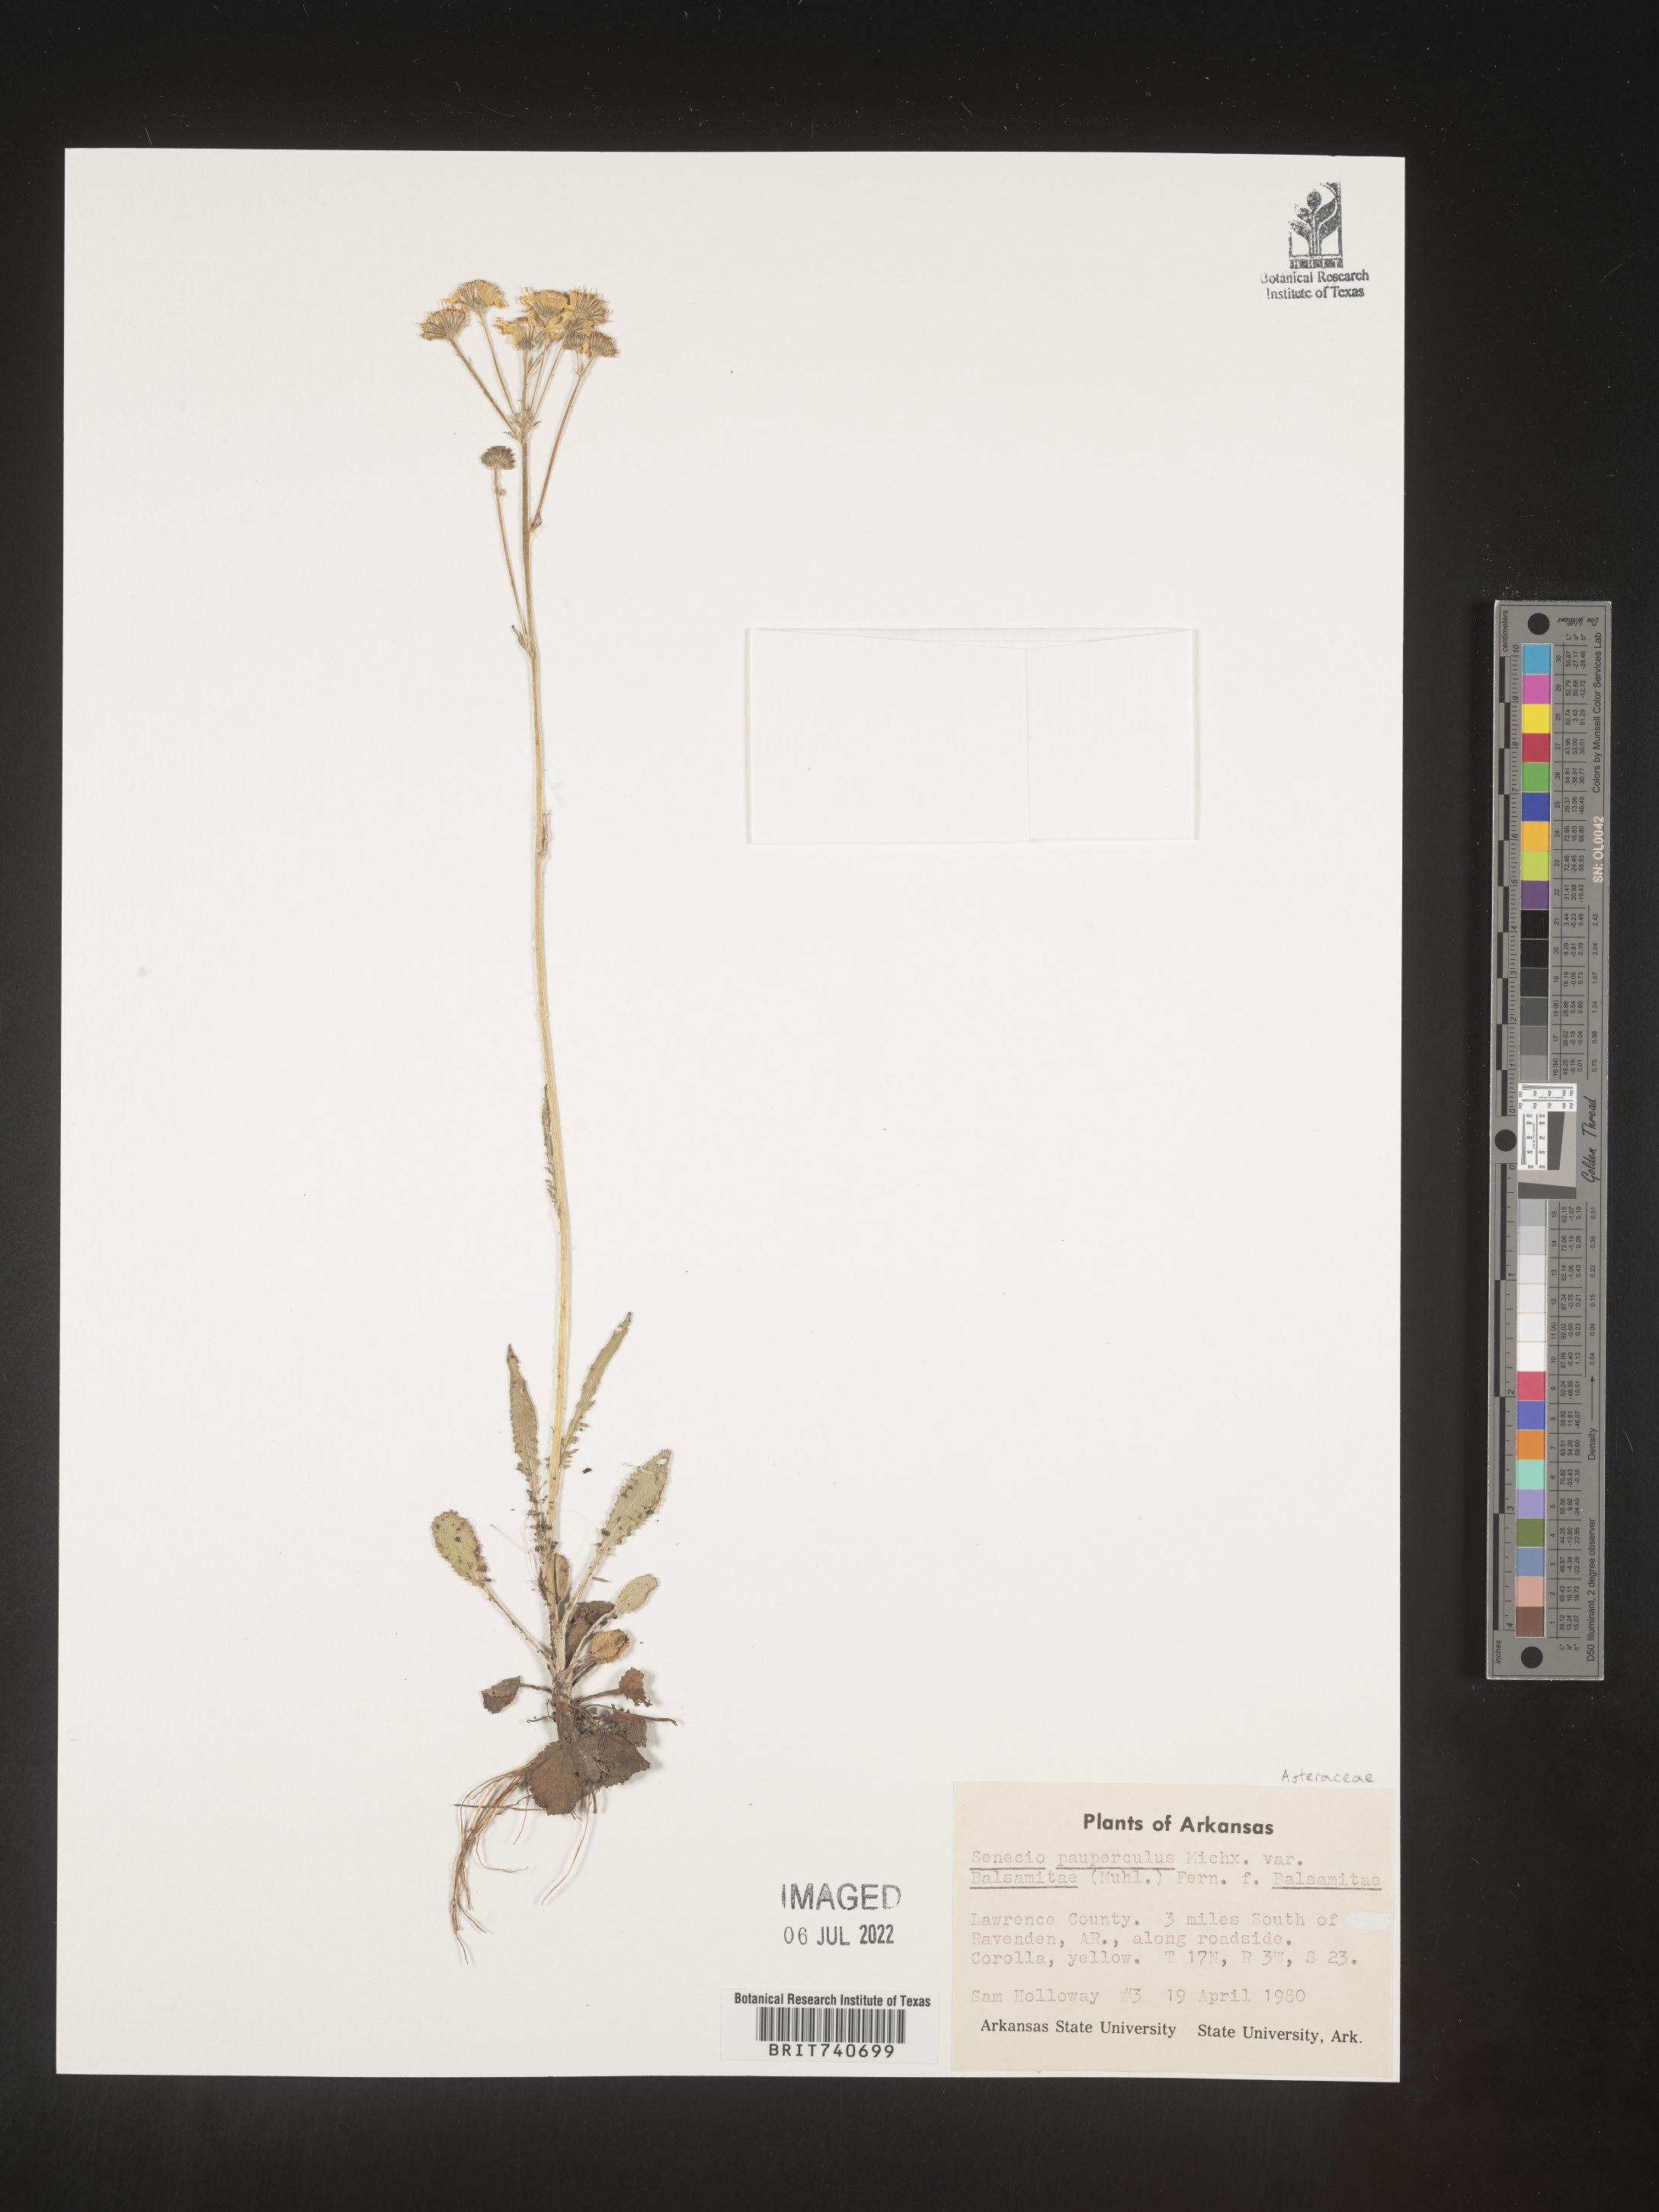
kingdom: Plantae
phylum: Tracheophyta
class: Magnoliopsida
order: Asterales
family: Asteraceae
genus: Packera
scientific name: Packera paupercula
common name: Balsam groundsel
